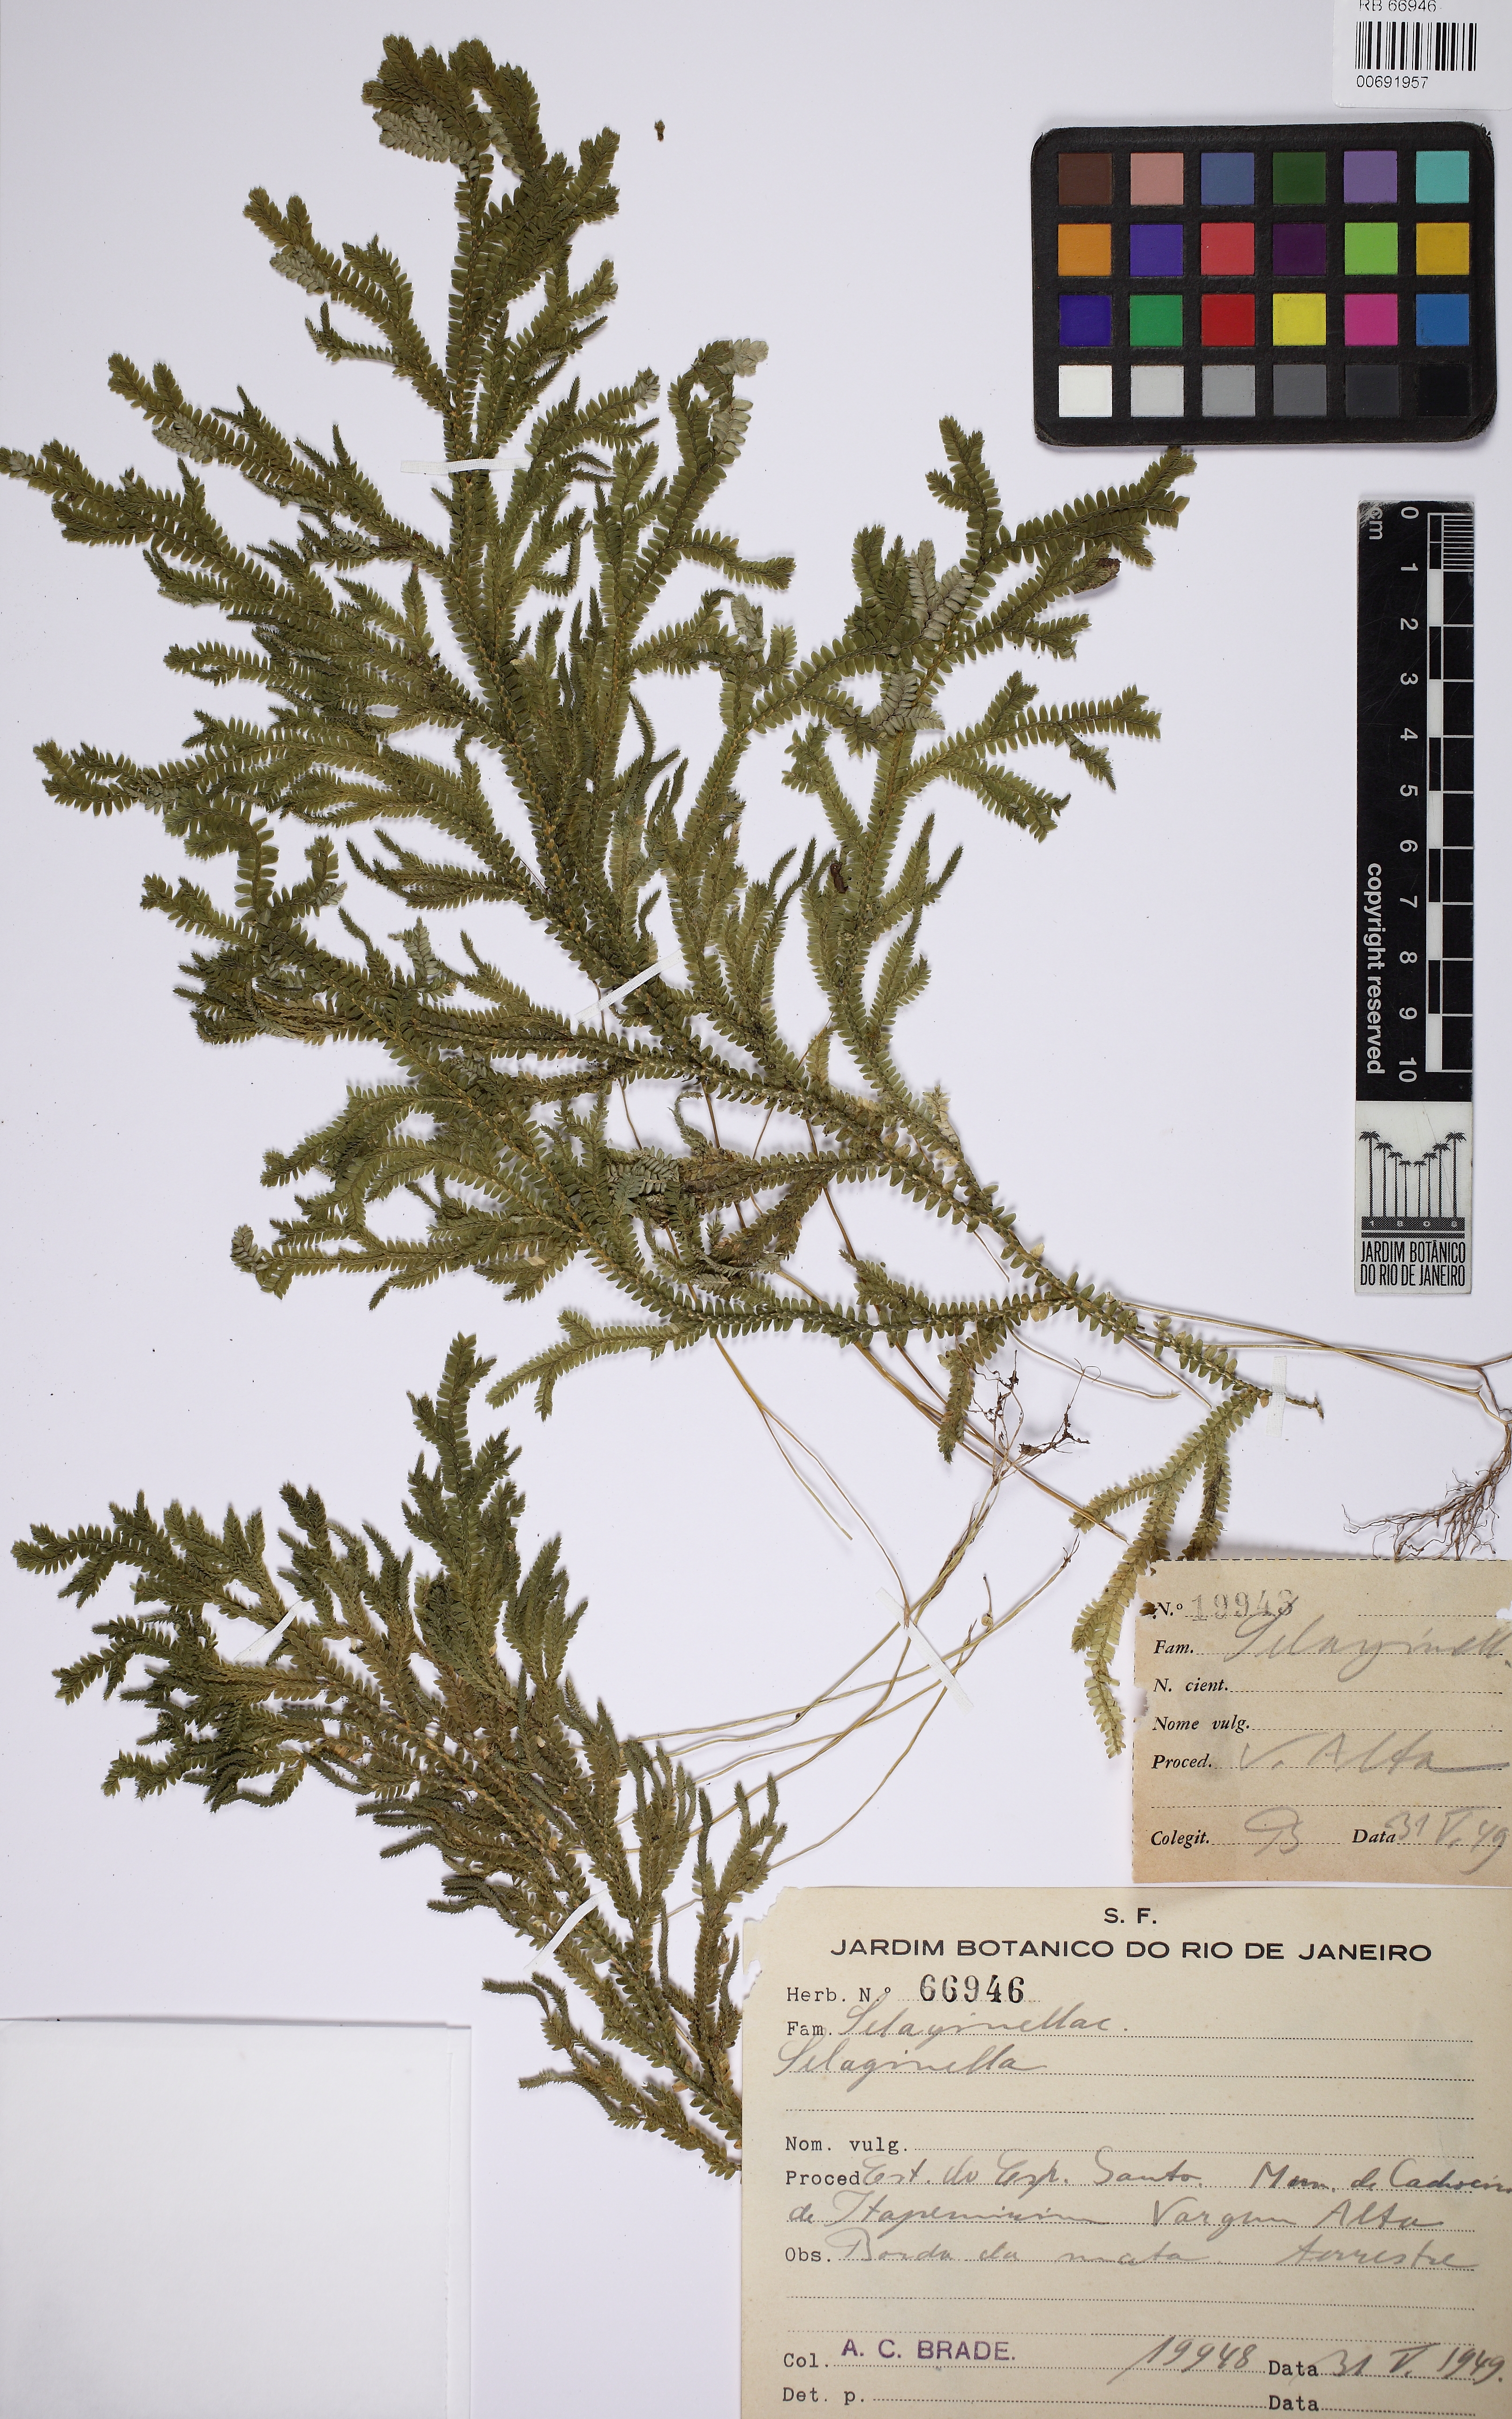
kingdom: Plantae
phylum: Tracheophyta
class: Lycopodiopsida
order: Selaginellales
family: Selaginellaceae
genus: Selaginella
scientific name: Selaginella flexuosa
